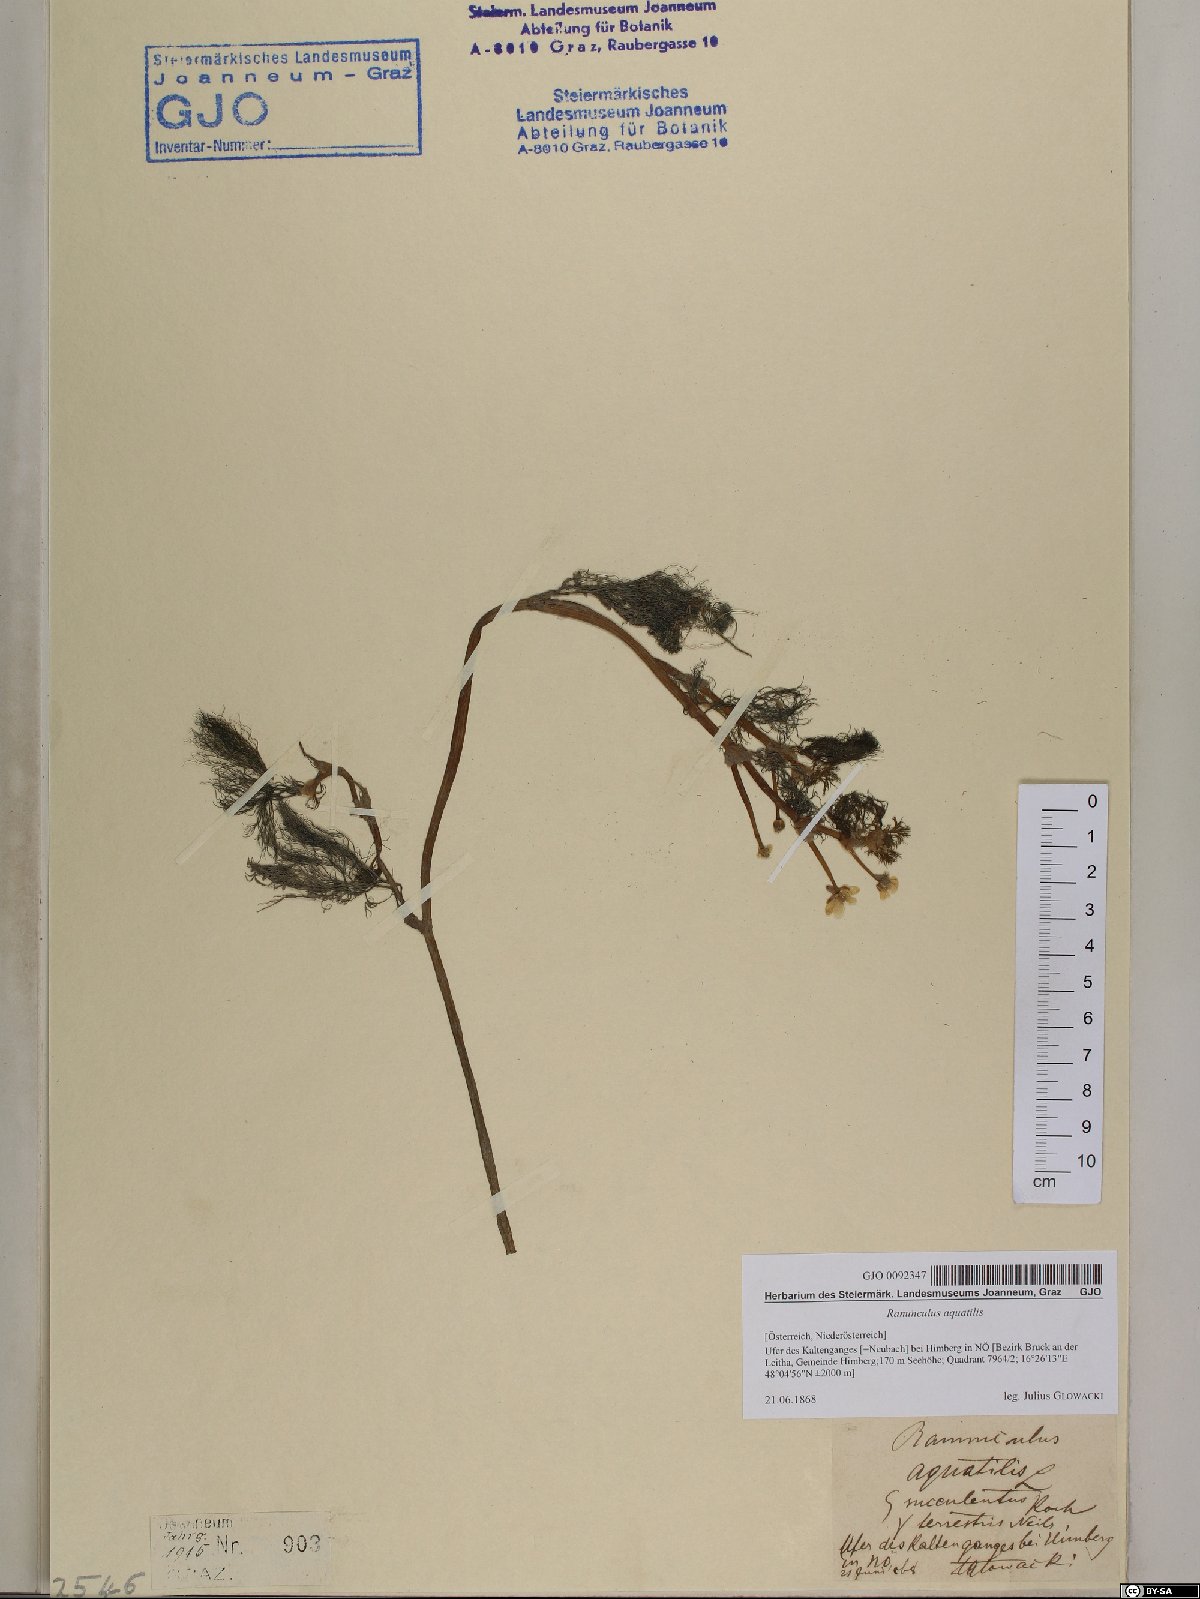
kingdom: Plantae
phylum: Tracheophyta
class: Magnoliopsida
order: Ranunculales
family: Ranunculaceae
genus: Ranunculus
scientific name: Ranunculus aquatilis
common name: Common water-crowfoot
